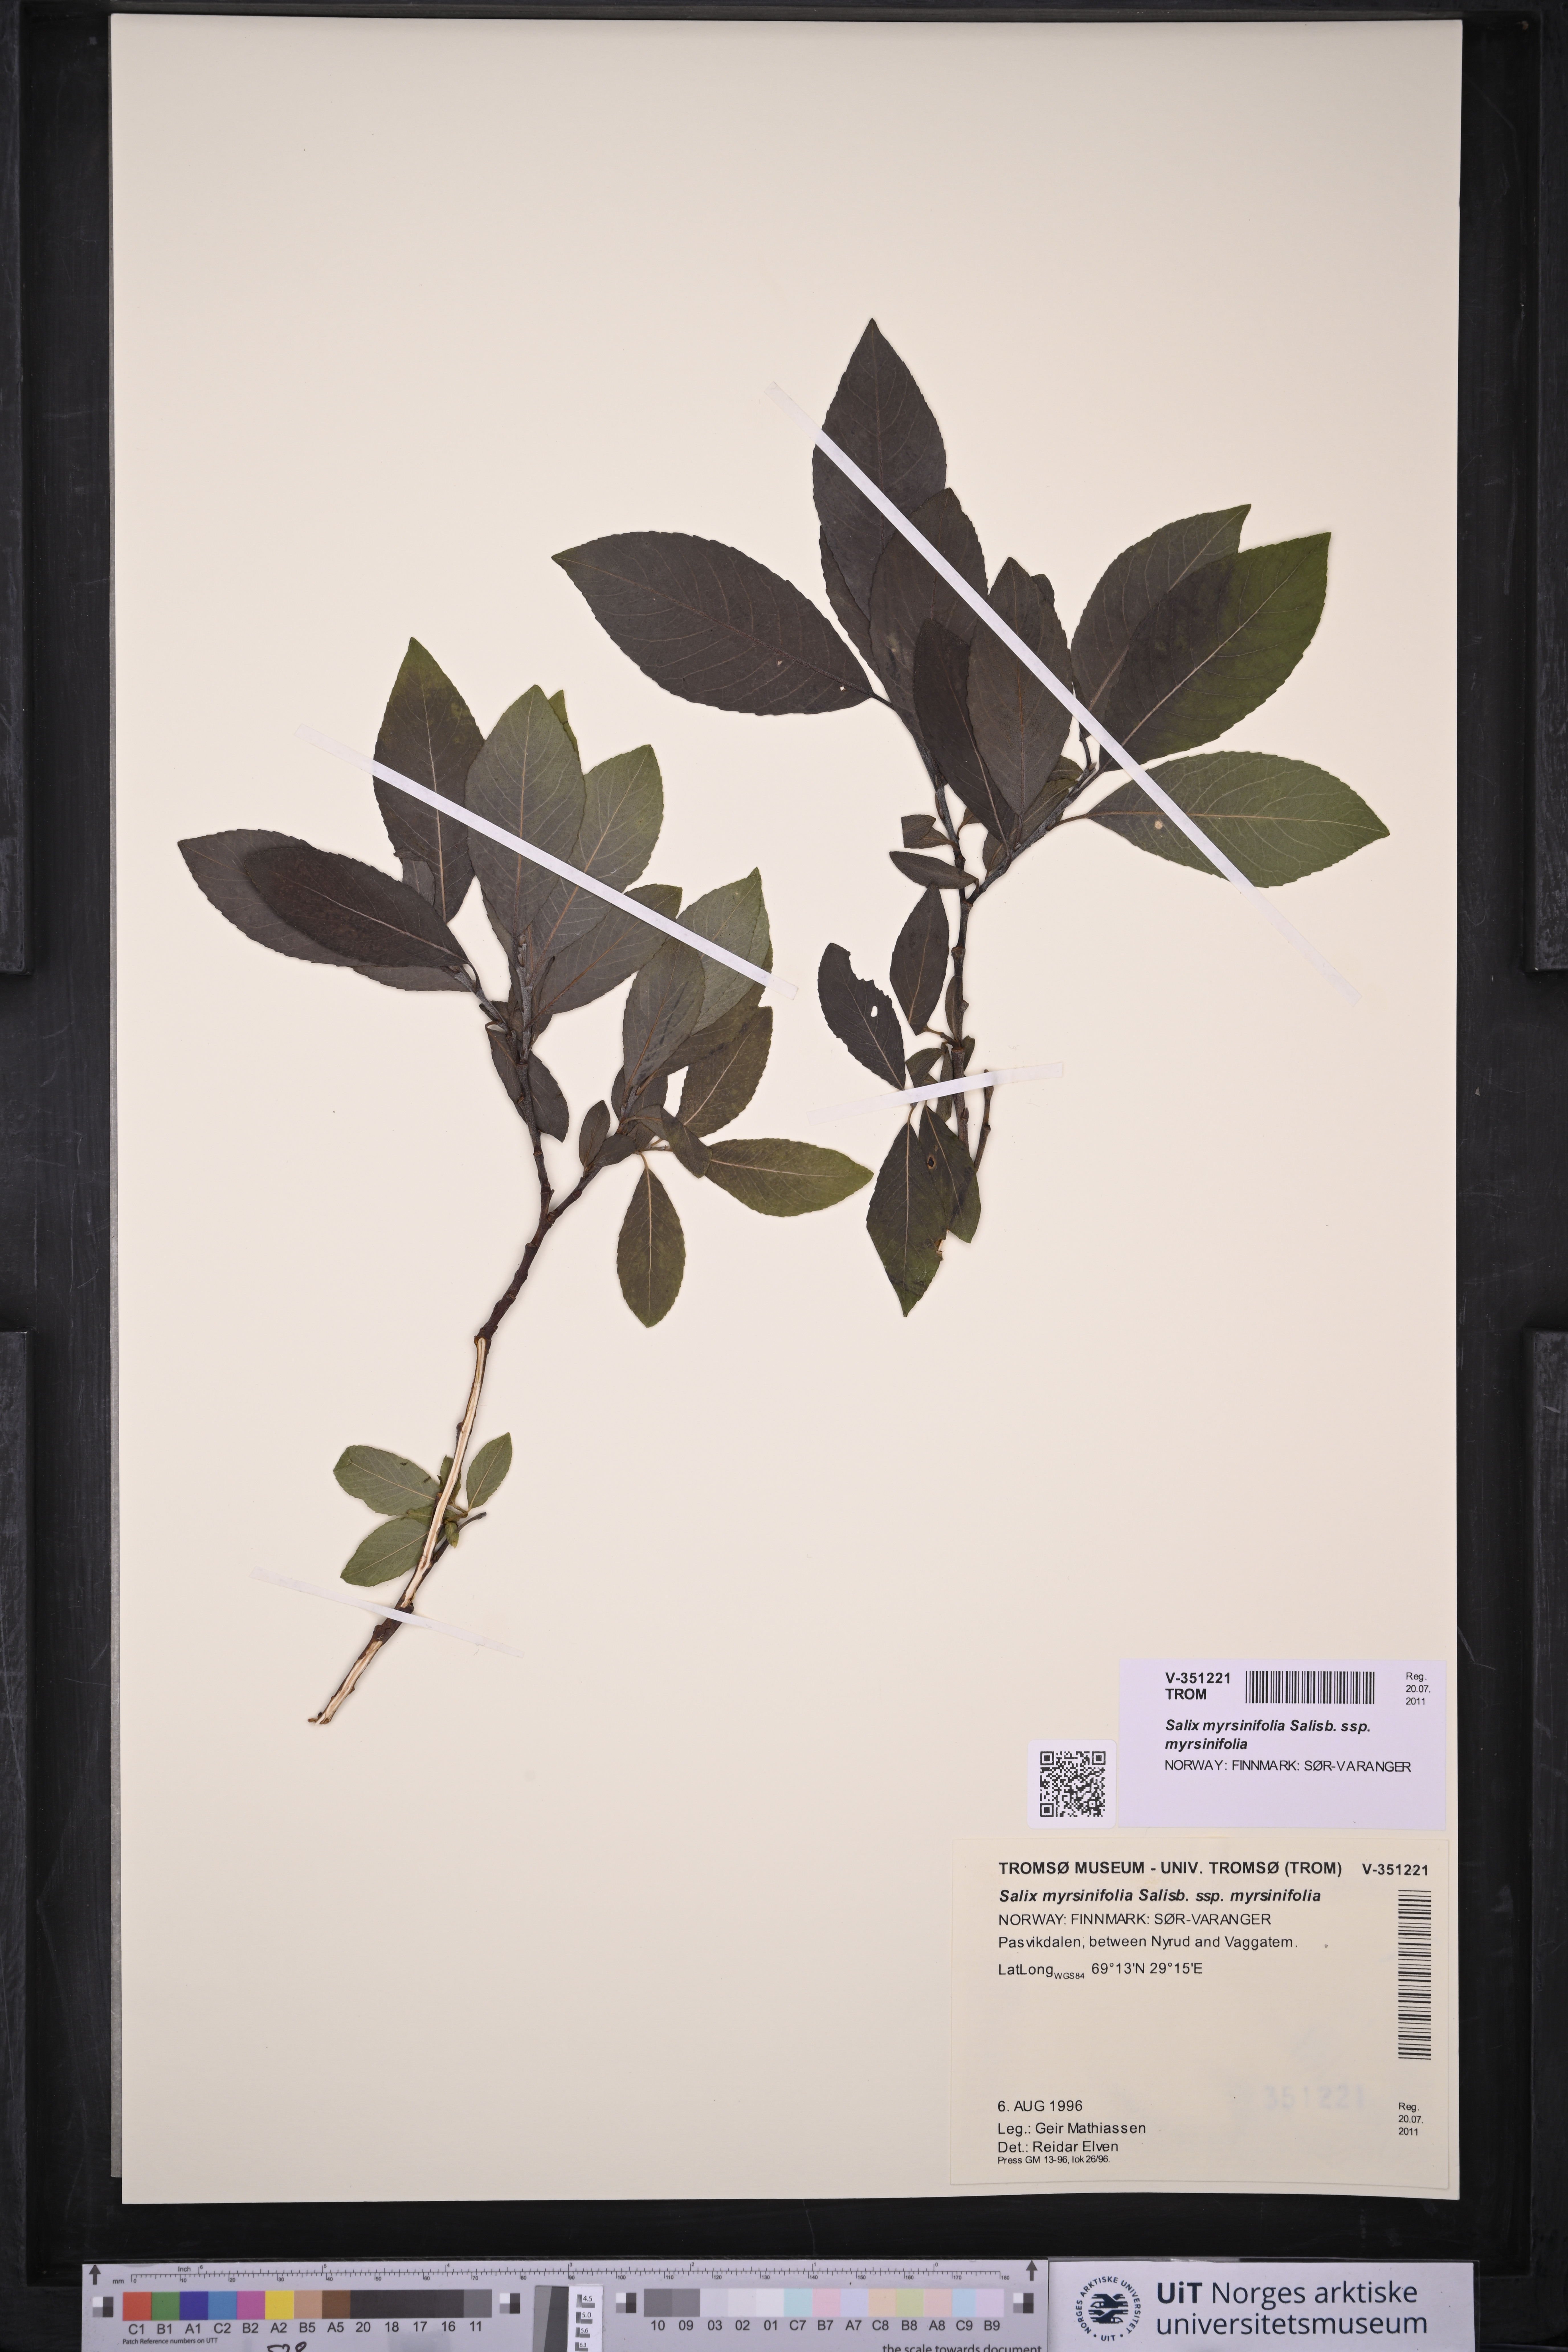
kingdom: Plantae
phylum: Tracheophyta
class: Magnoliopsida
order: Malpighiales
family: Salicaceae
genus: Salix
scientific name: Salix myrsinifolia
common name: Dark-leaved willow
